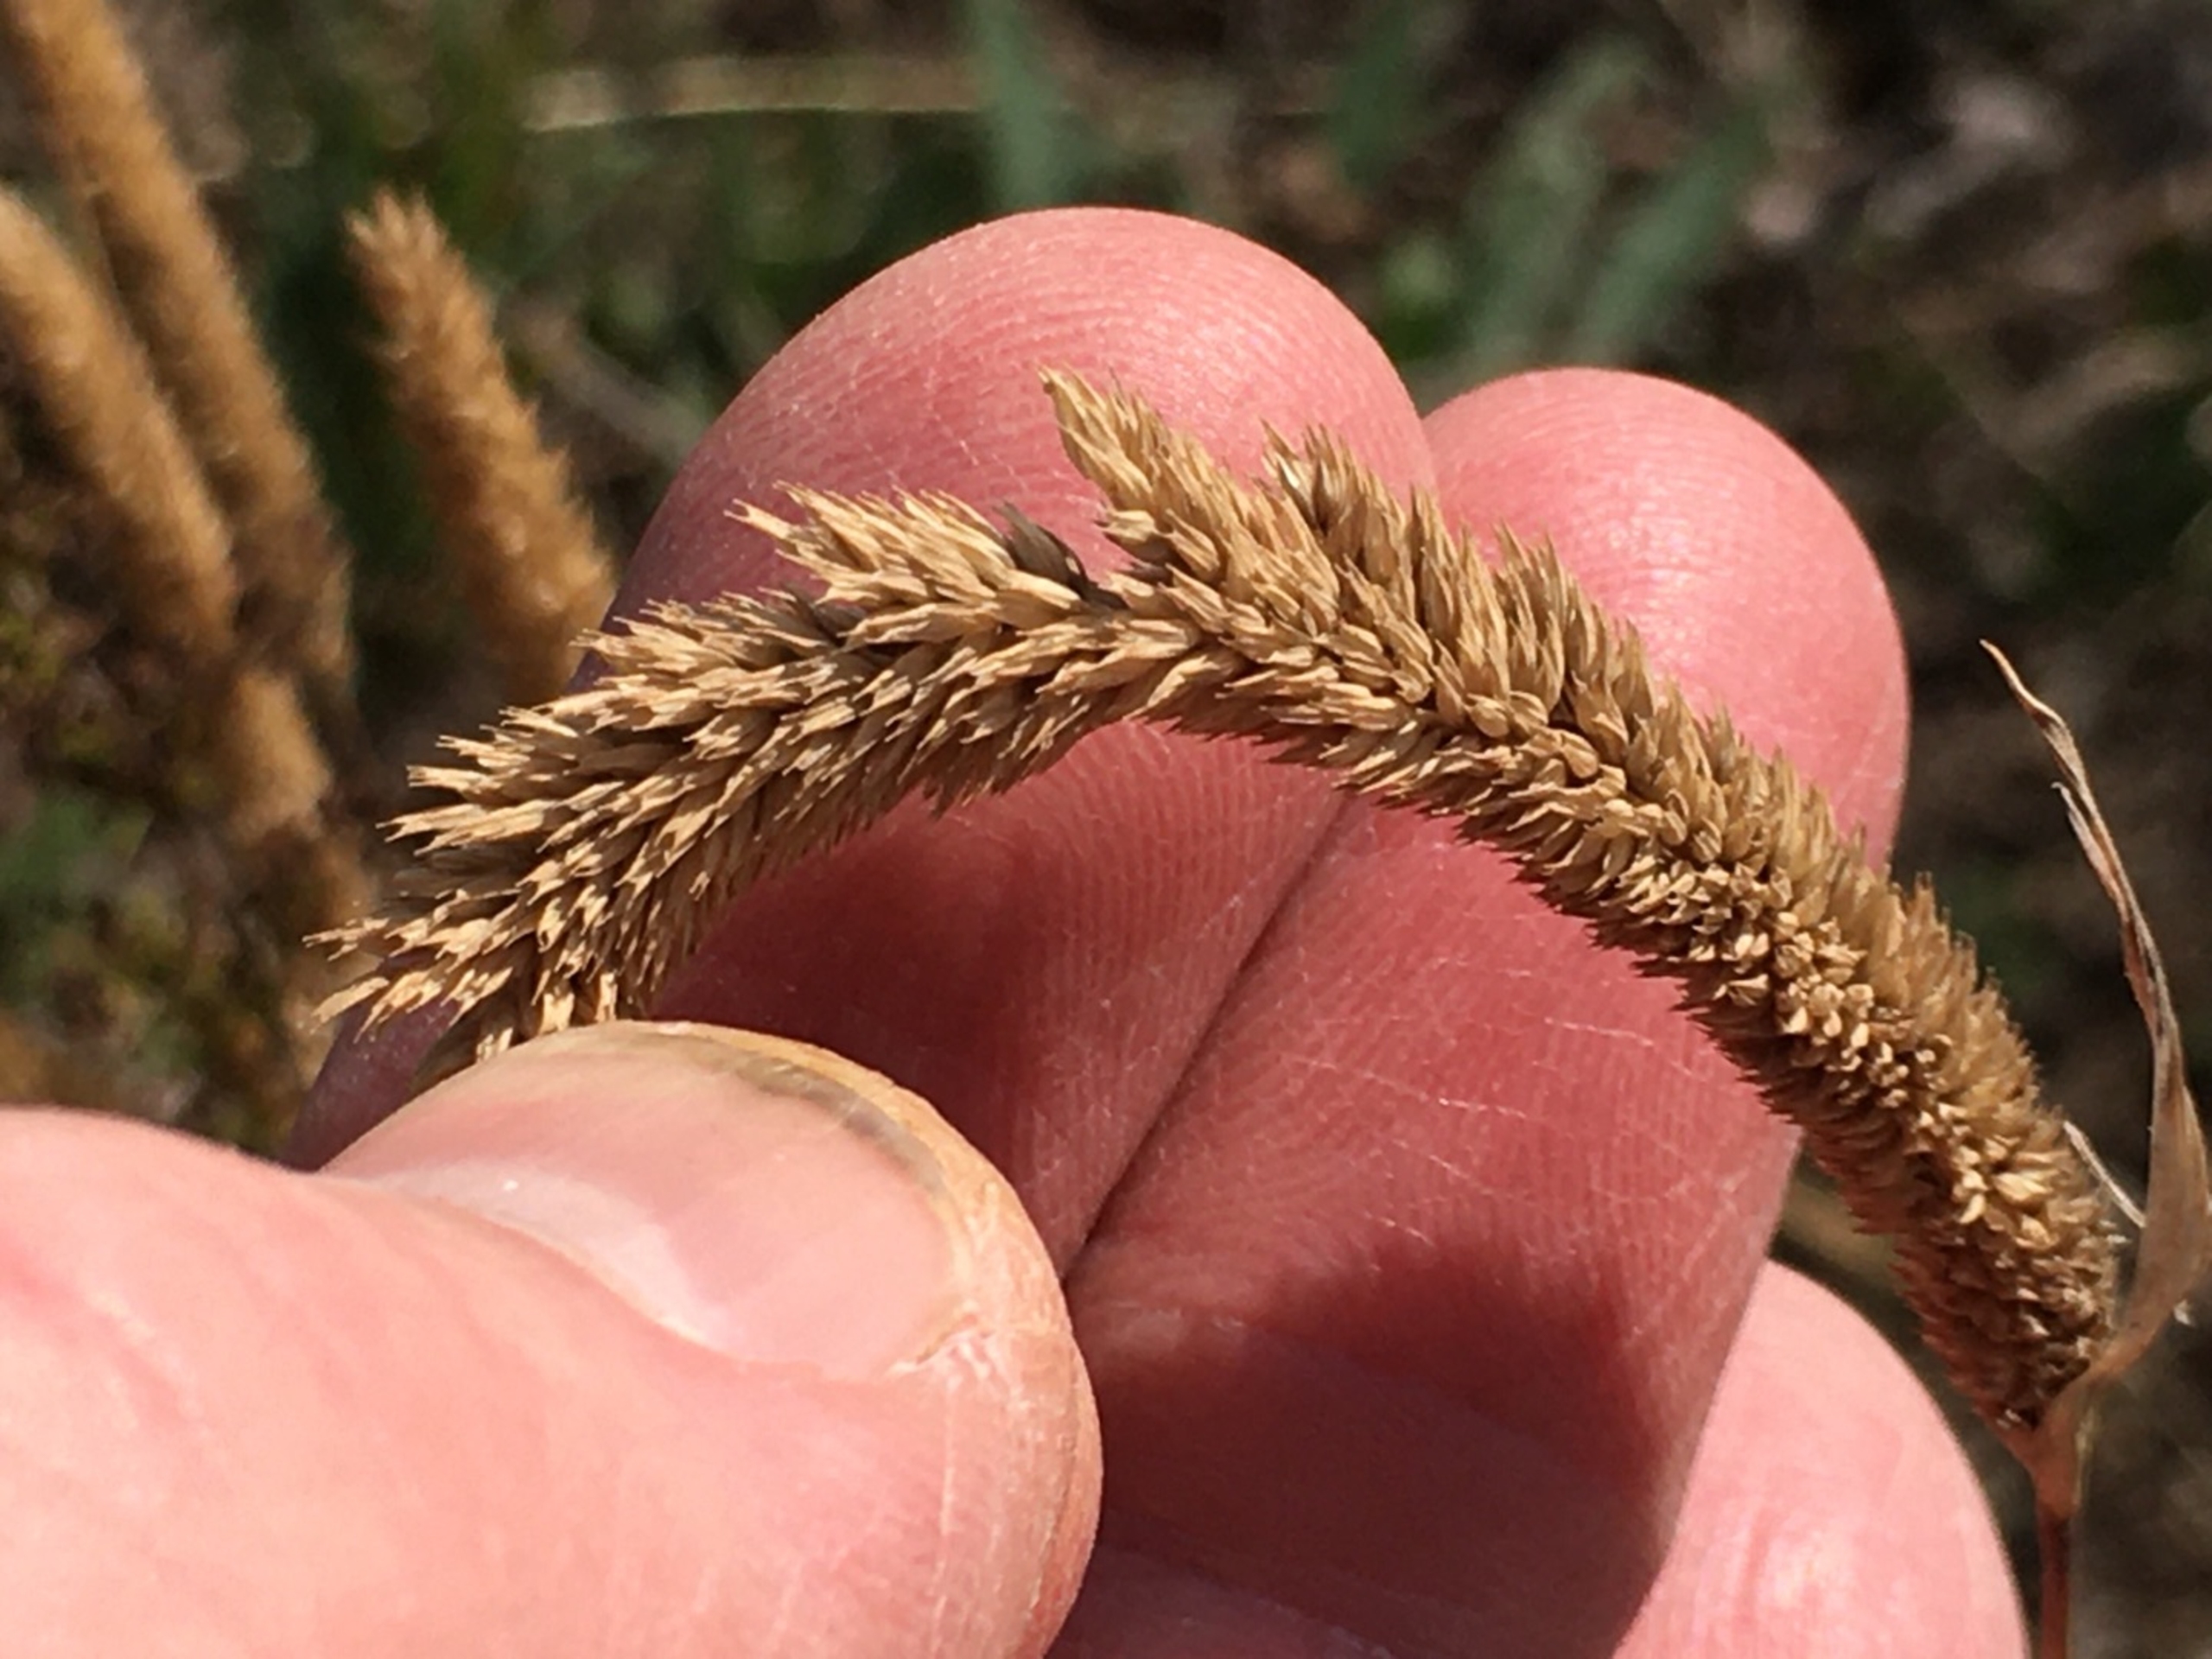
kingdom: Plantae
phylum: Tracheophyta
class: Liliopsida
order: Poales
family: Poaceae
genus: Phleum
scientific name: Phleum phleoides
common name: Glat rottehale
